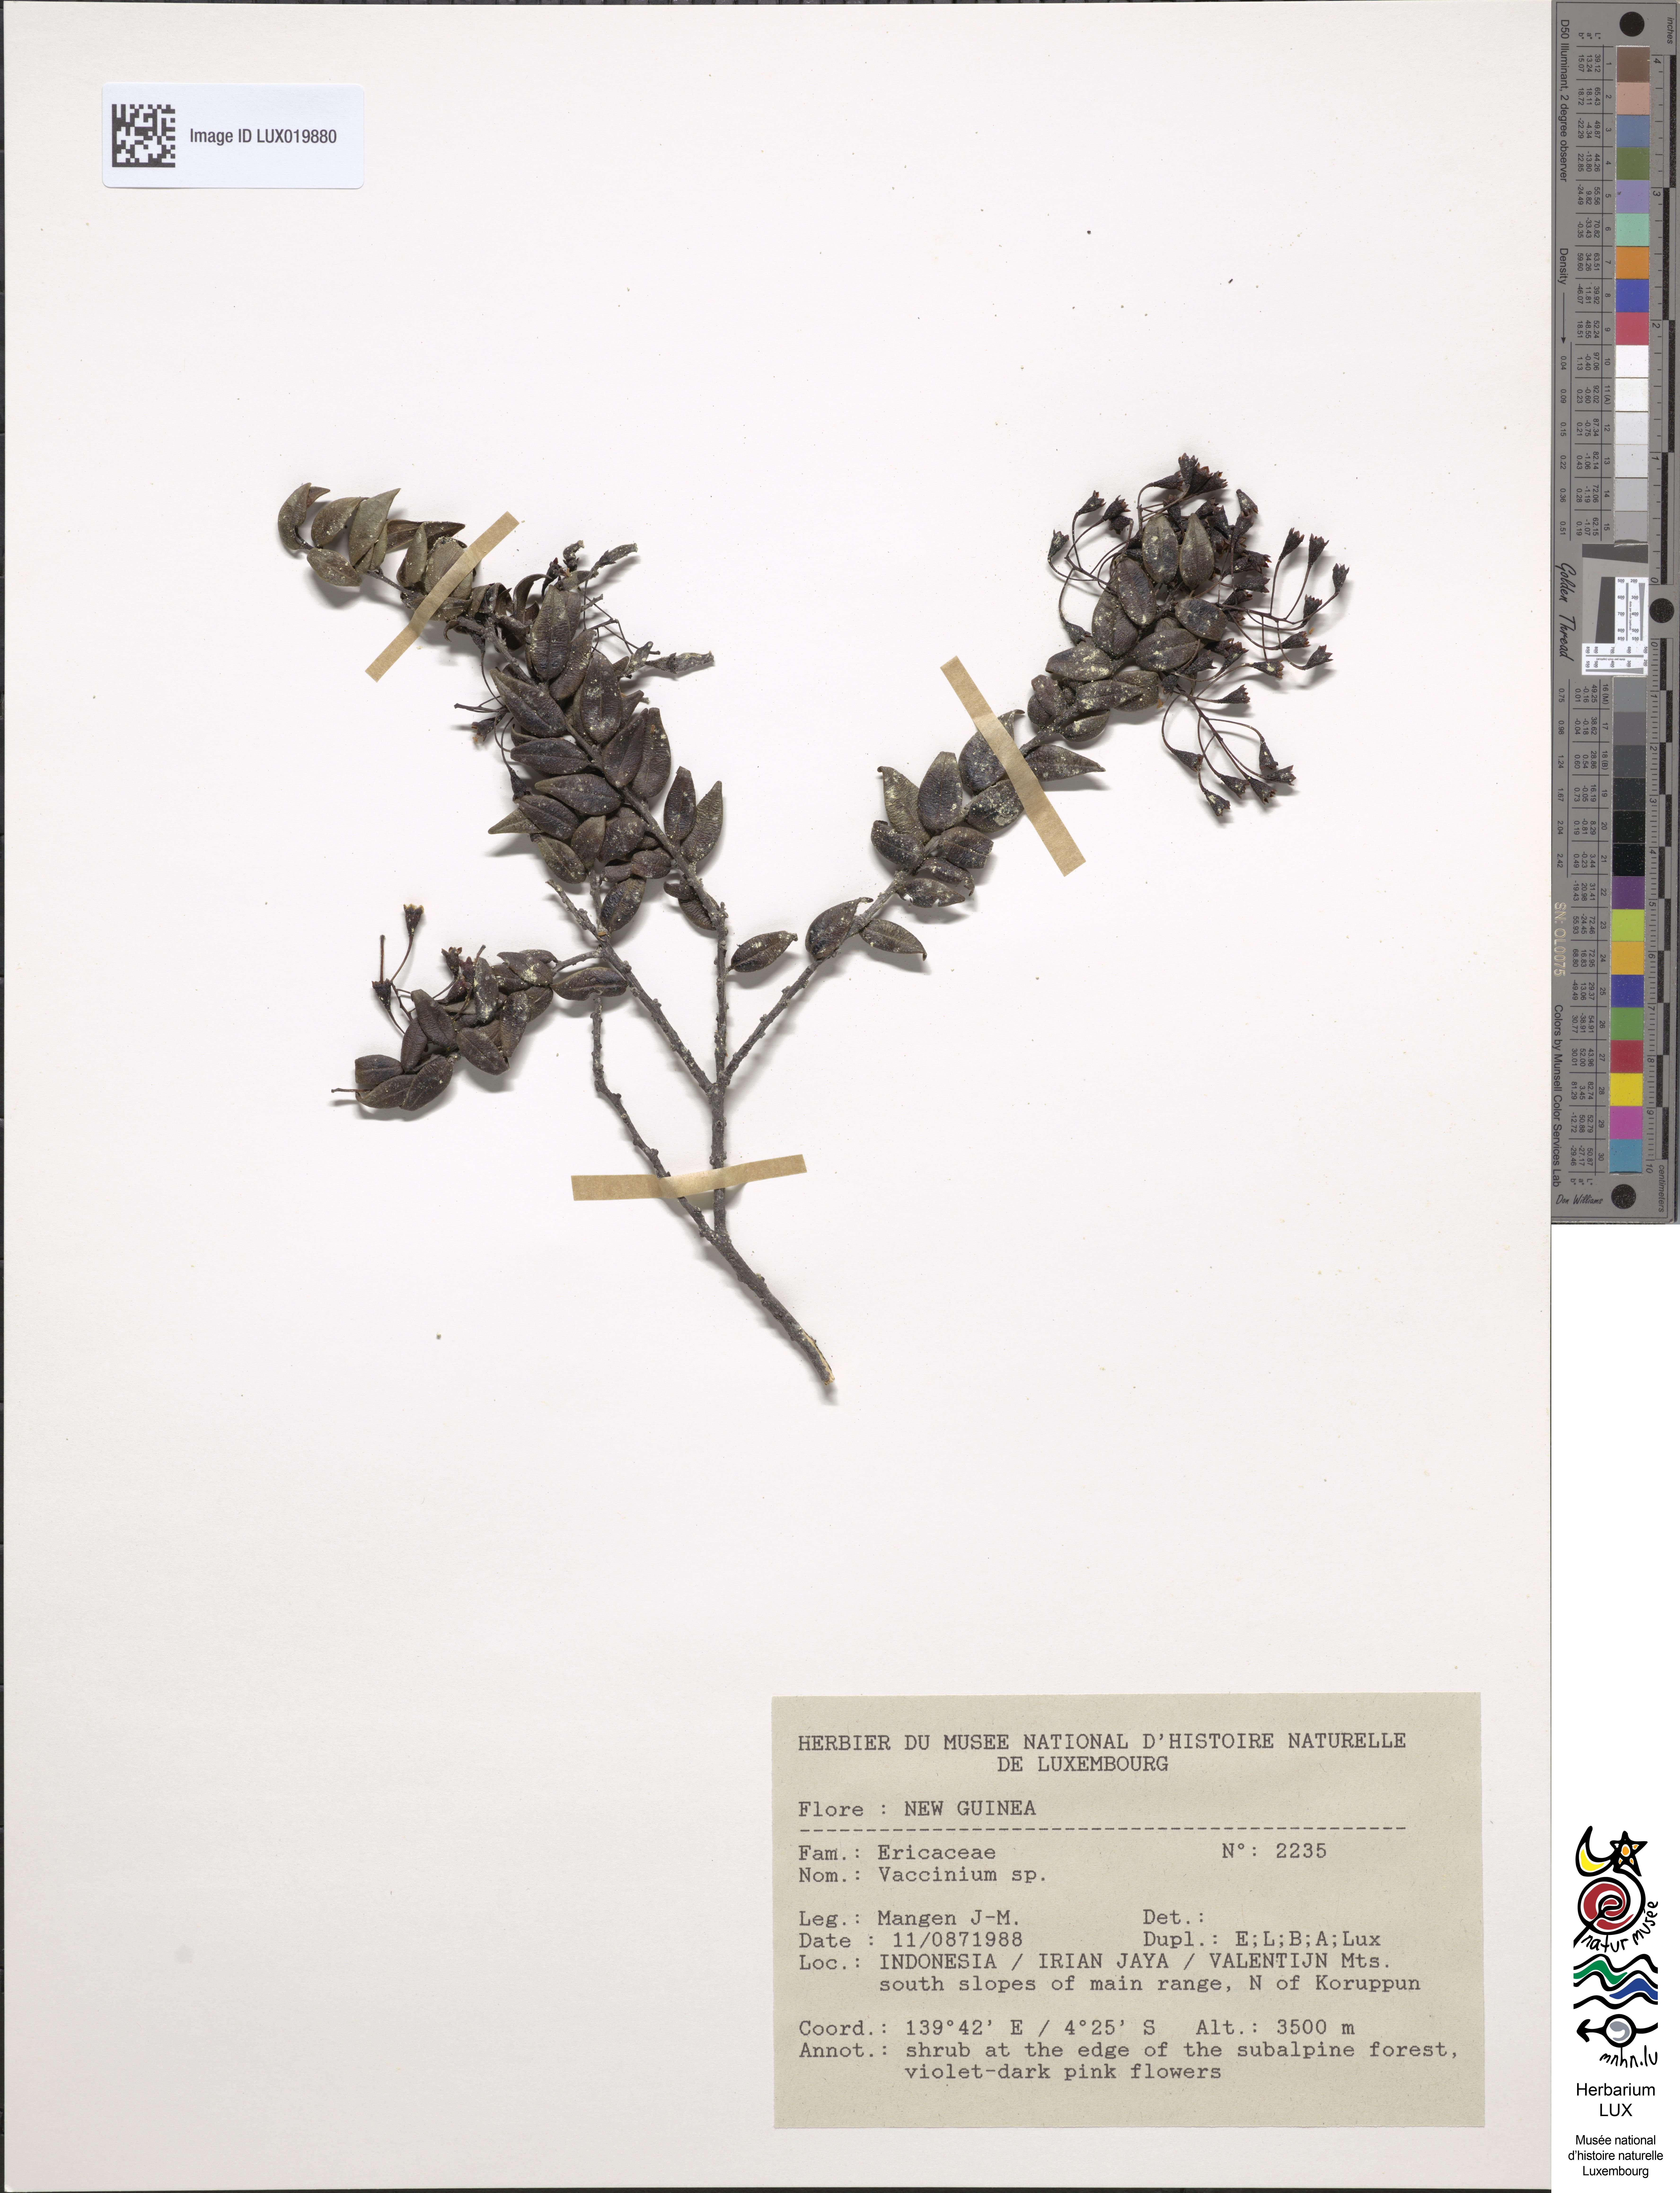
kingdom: Plantae
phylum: Tracheophyta
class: Magnoliopsida
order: Ericales
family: Ericaceae
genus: Vaccinium
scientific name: Vaccinium
